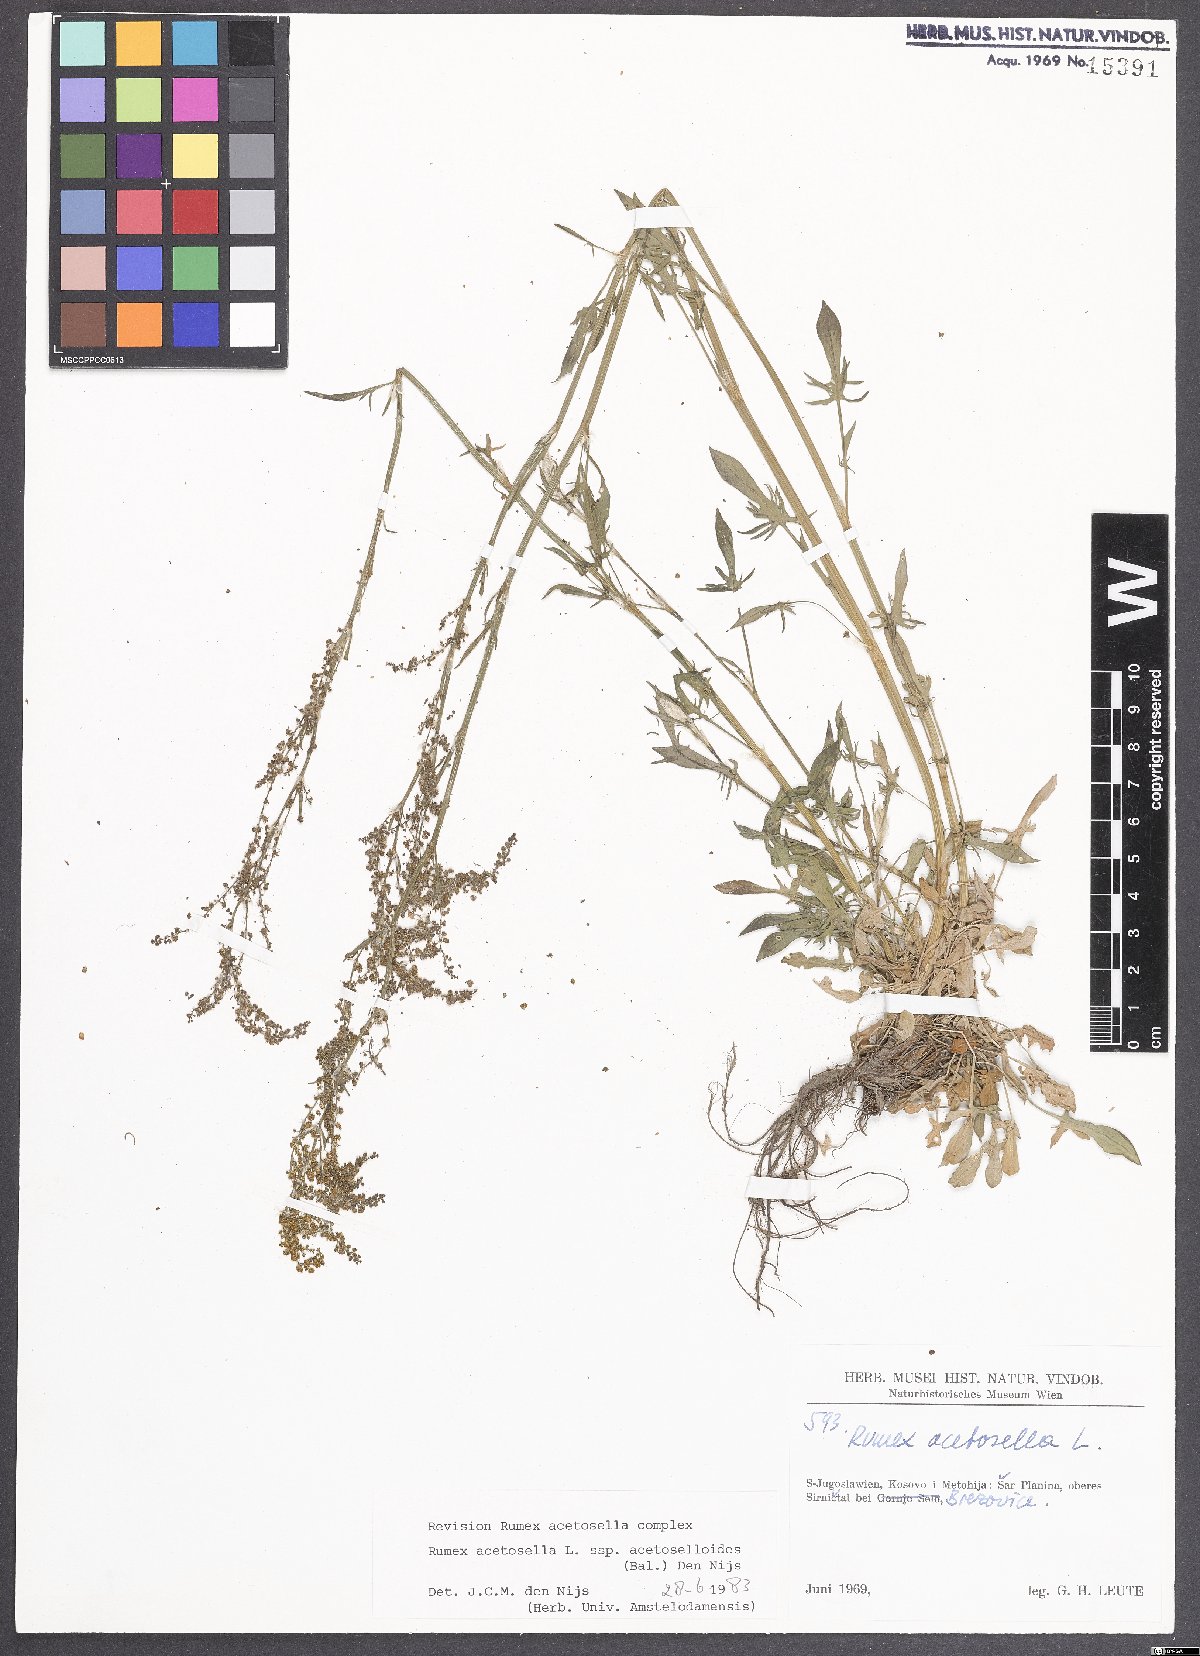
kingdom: Plantae
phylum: Tracheophyta
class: Magnoliopsida
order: Caryophyllales
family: Polygonaceae
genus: Rumex
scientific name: Rumex acetosella
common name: Common sheep sorrel
